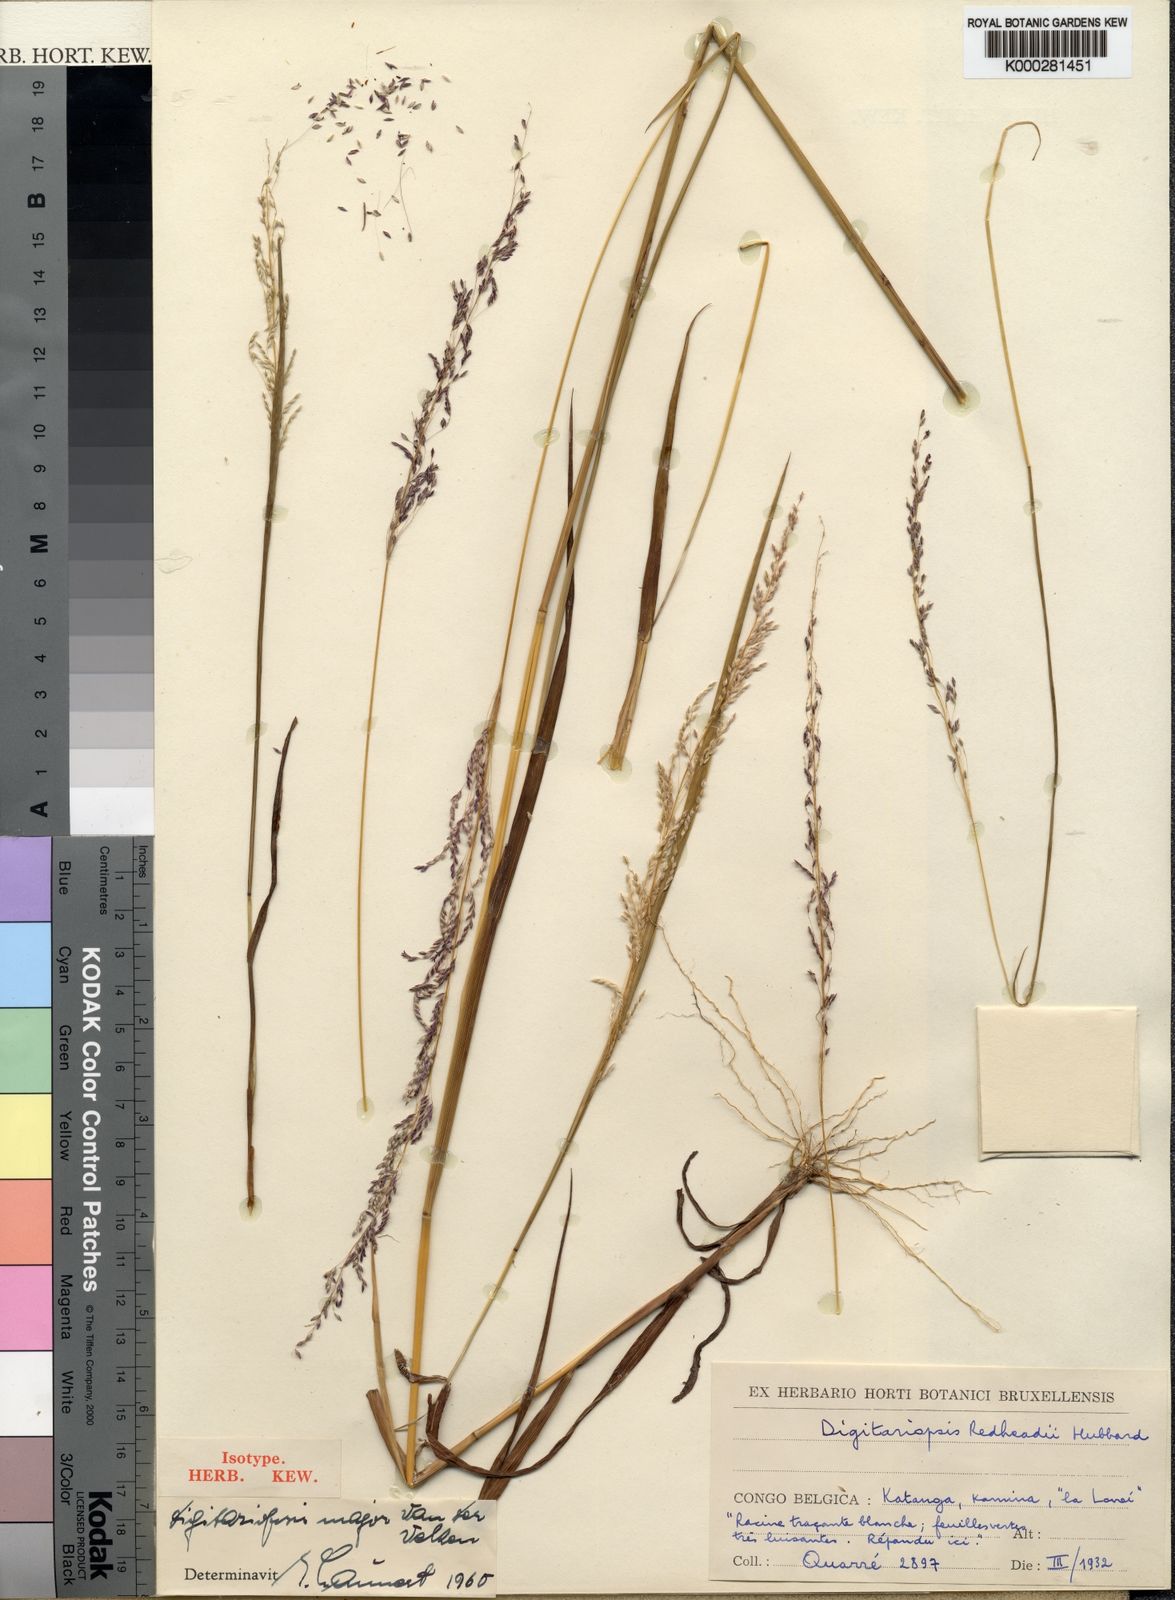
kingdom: Plantae
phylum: Tracheophyta
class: Liliopsida
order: Poales
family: Poaceae
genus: Digitaria
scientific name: Digitaria poggeana
